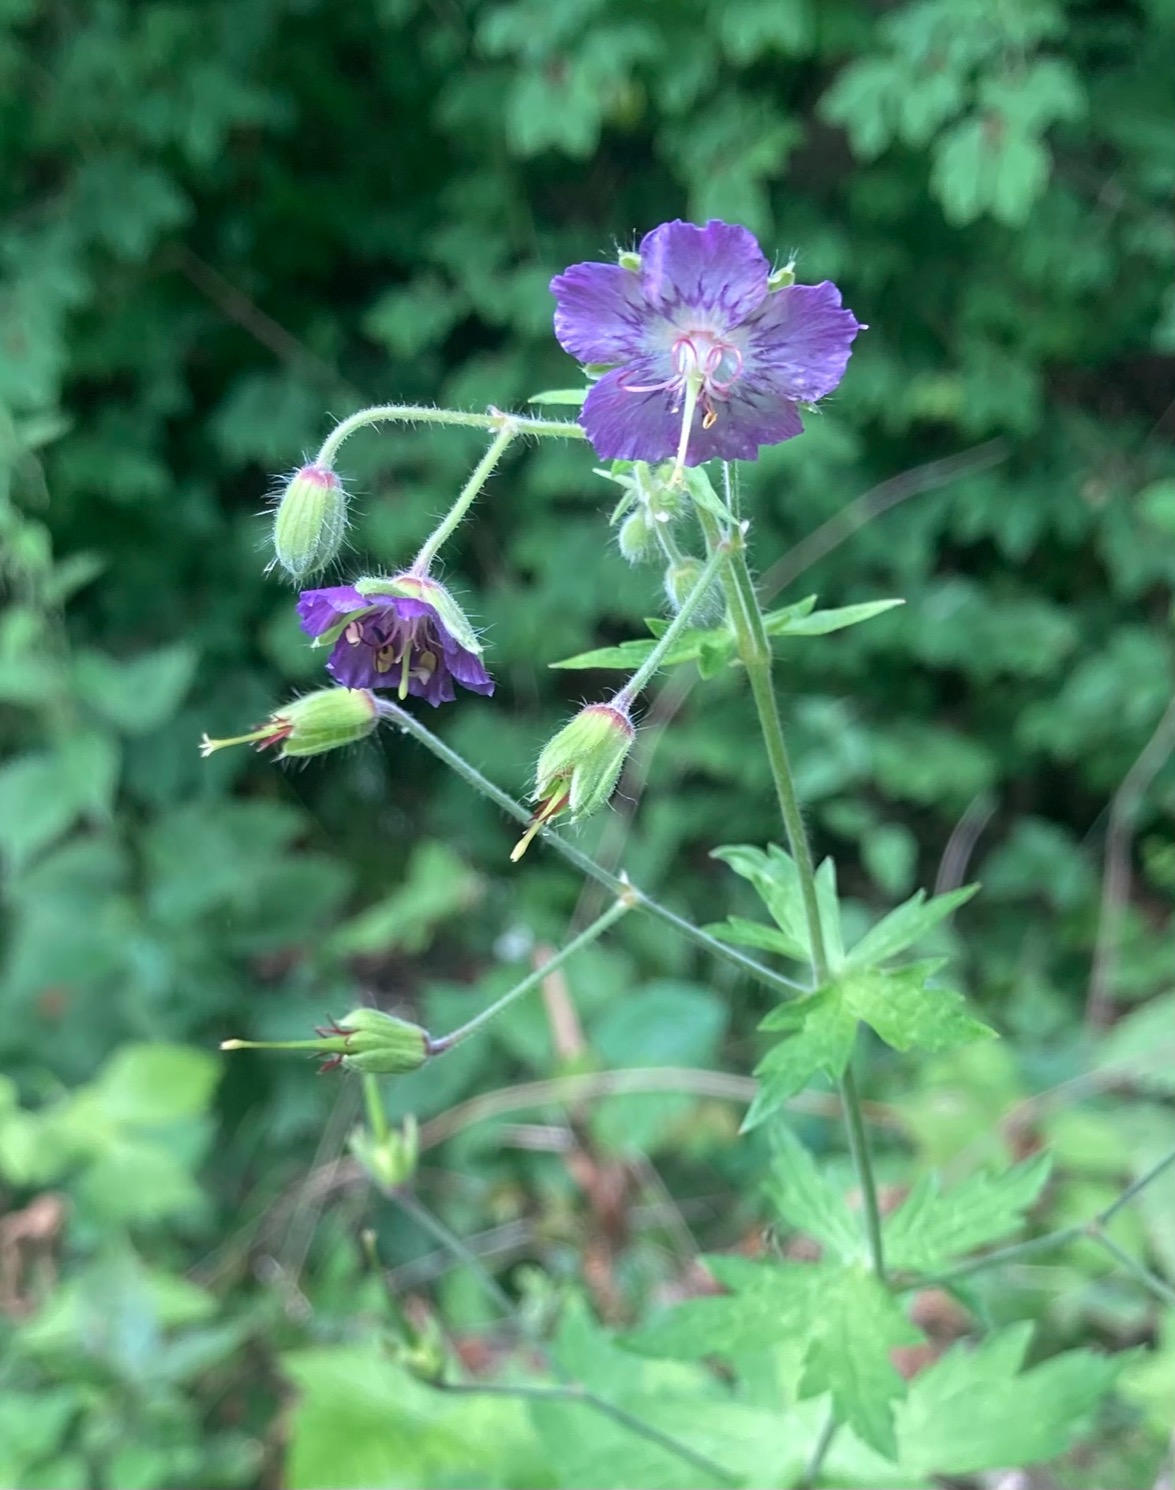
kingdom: Plantae
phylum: Tracheophyta
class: Magnoliopsida
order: Geraniales
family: Geraniaceae
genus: Geranium
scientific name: Geranium phaeum
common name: Bølgekronet storkenæb
